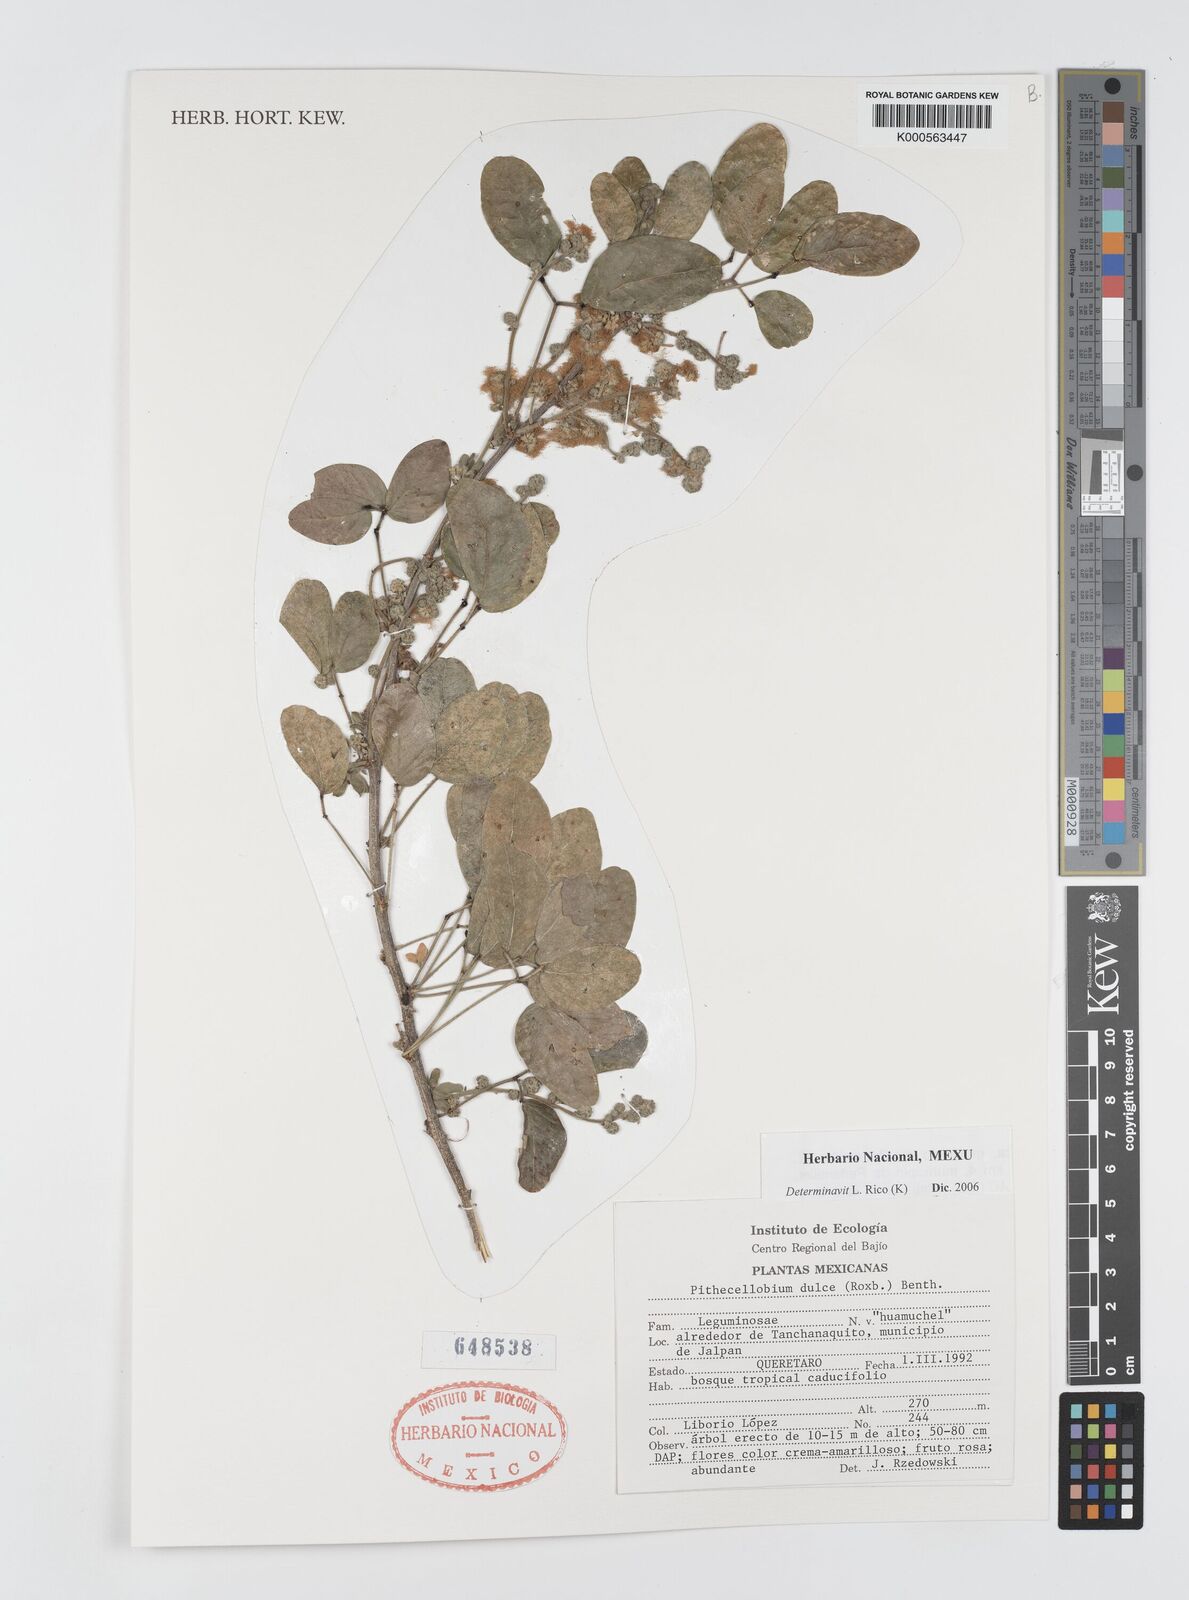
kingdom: Plantae
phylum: Tracheophyta
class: Magnoliopsida
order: Fabales
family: Fabaceae
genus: Pithecellobium
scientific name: Pithecellobium dulce
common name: Monkeypod
